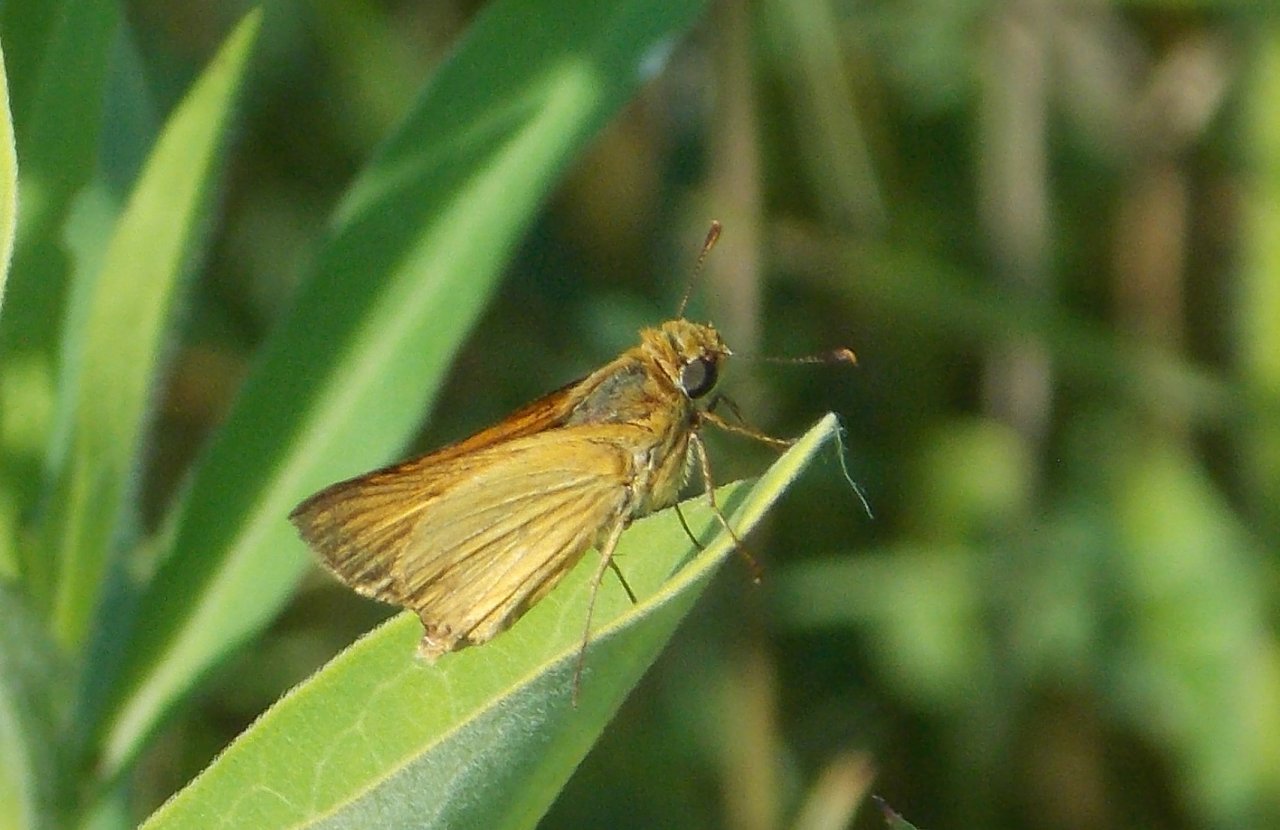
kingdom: Animalia
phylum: Arthropoda
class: Insecta
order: Lepidoptera
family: Hesperiidae
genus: Atrytone
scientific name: Atrytone delaware
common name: Delaware Skipper
